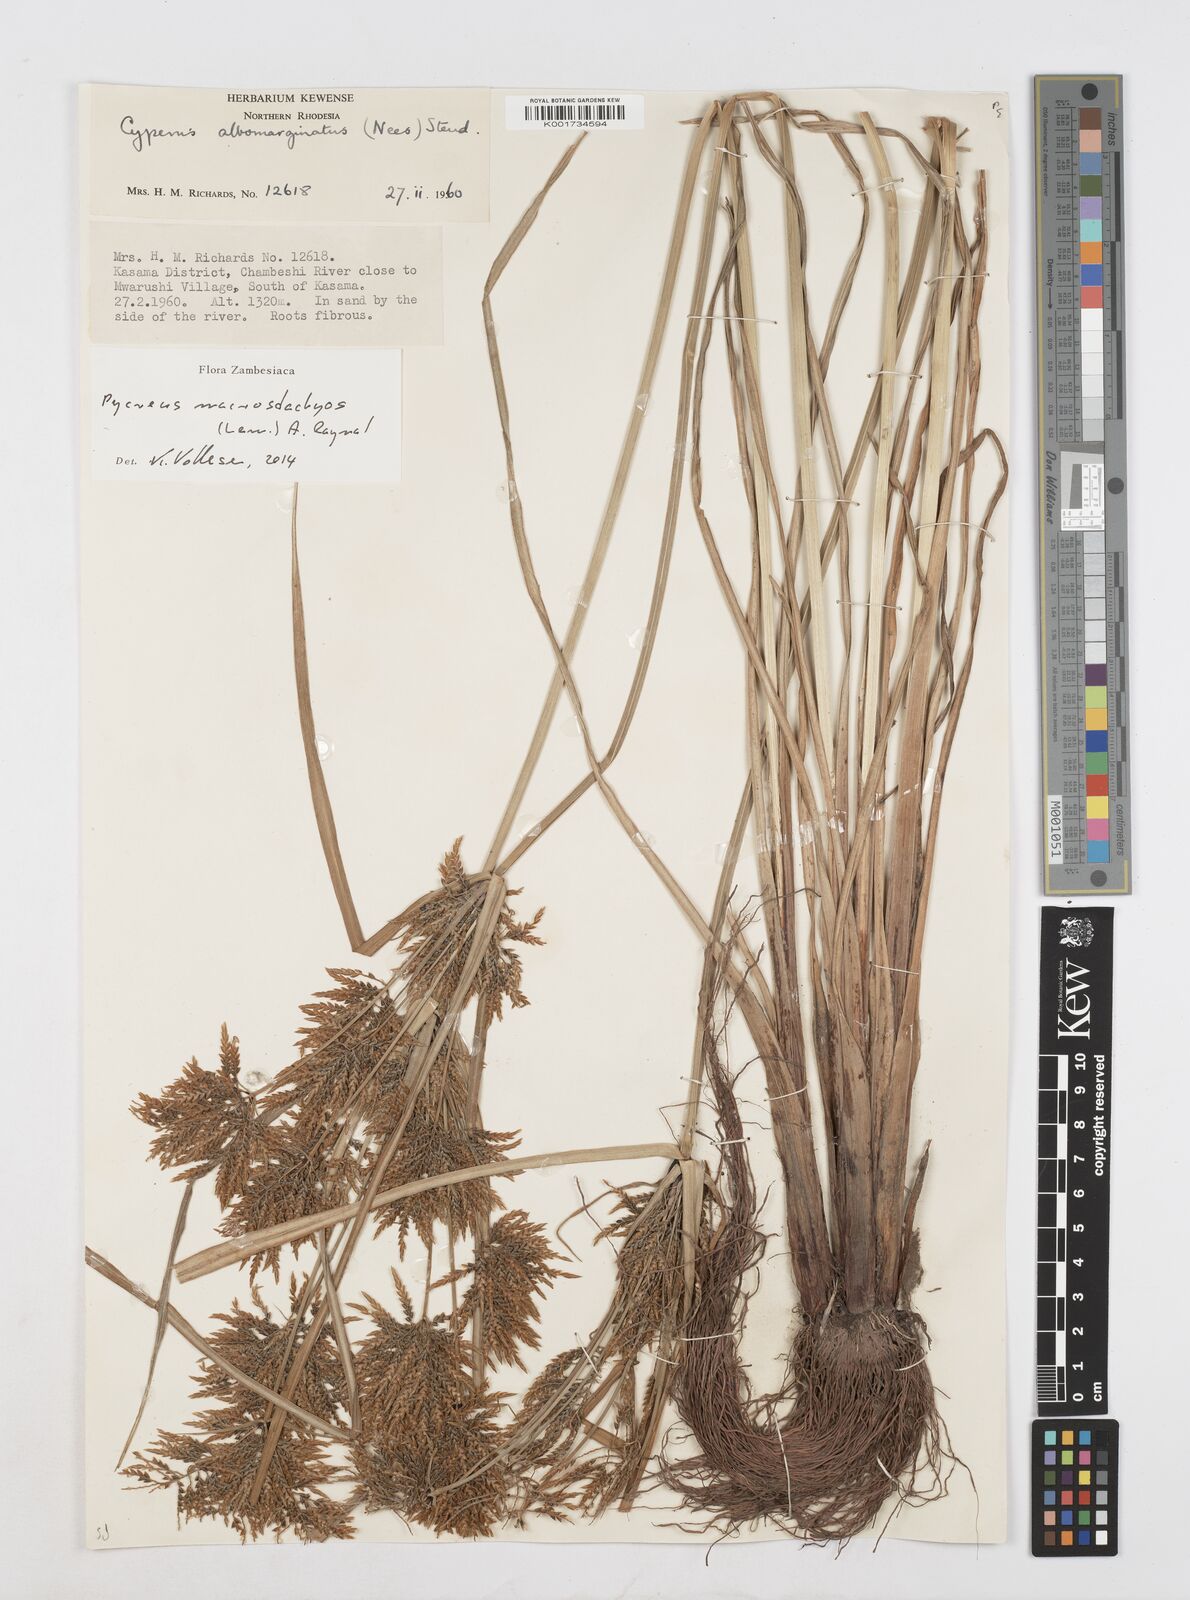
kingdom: Plantae
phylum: Tracheophyta
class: Liliopsida
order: Poales
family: Cyperaceae
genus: Cyperus
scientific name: Cyperus macrostachyos
